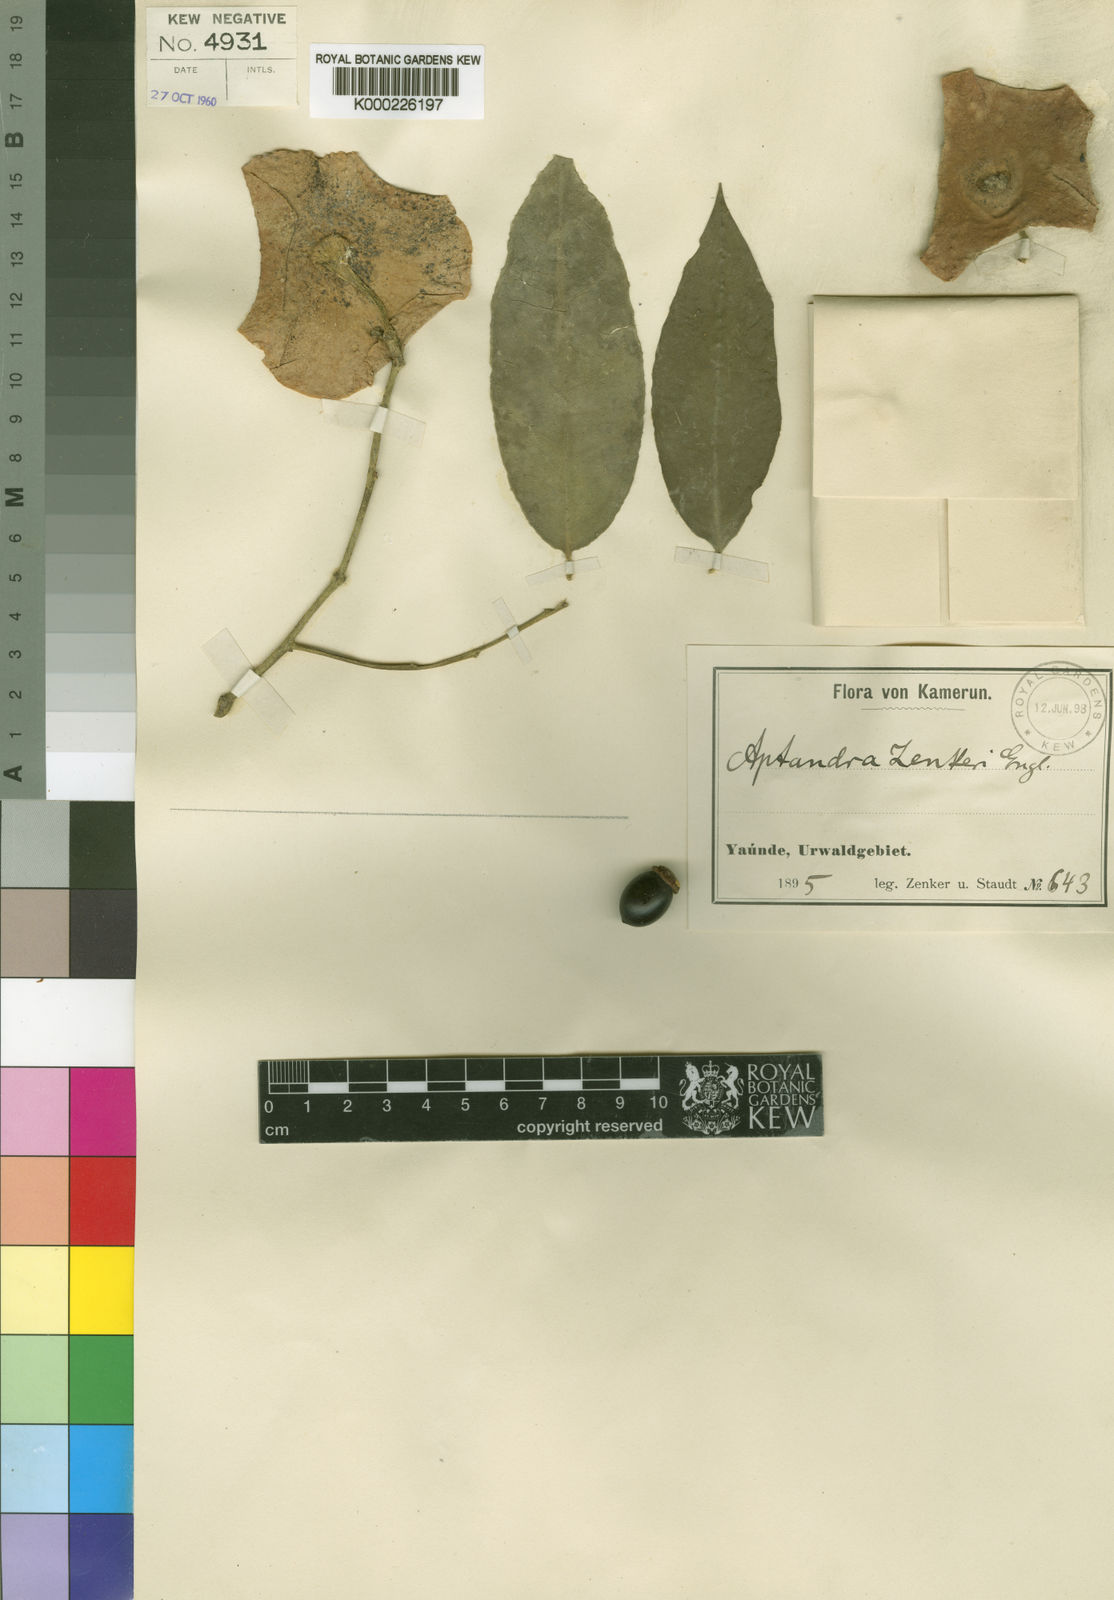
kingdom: Plantae
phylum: Tracheophyta
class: Magnoliopsida
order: Santalales
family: Aptandraceae
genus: Aptandra
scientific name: Aptandra zenkeri
